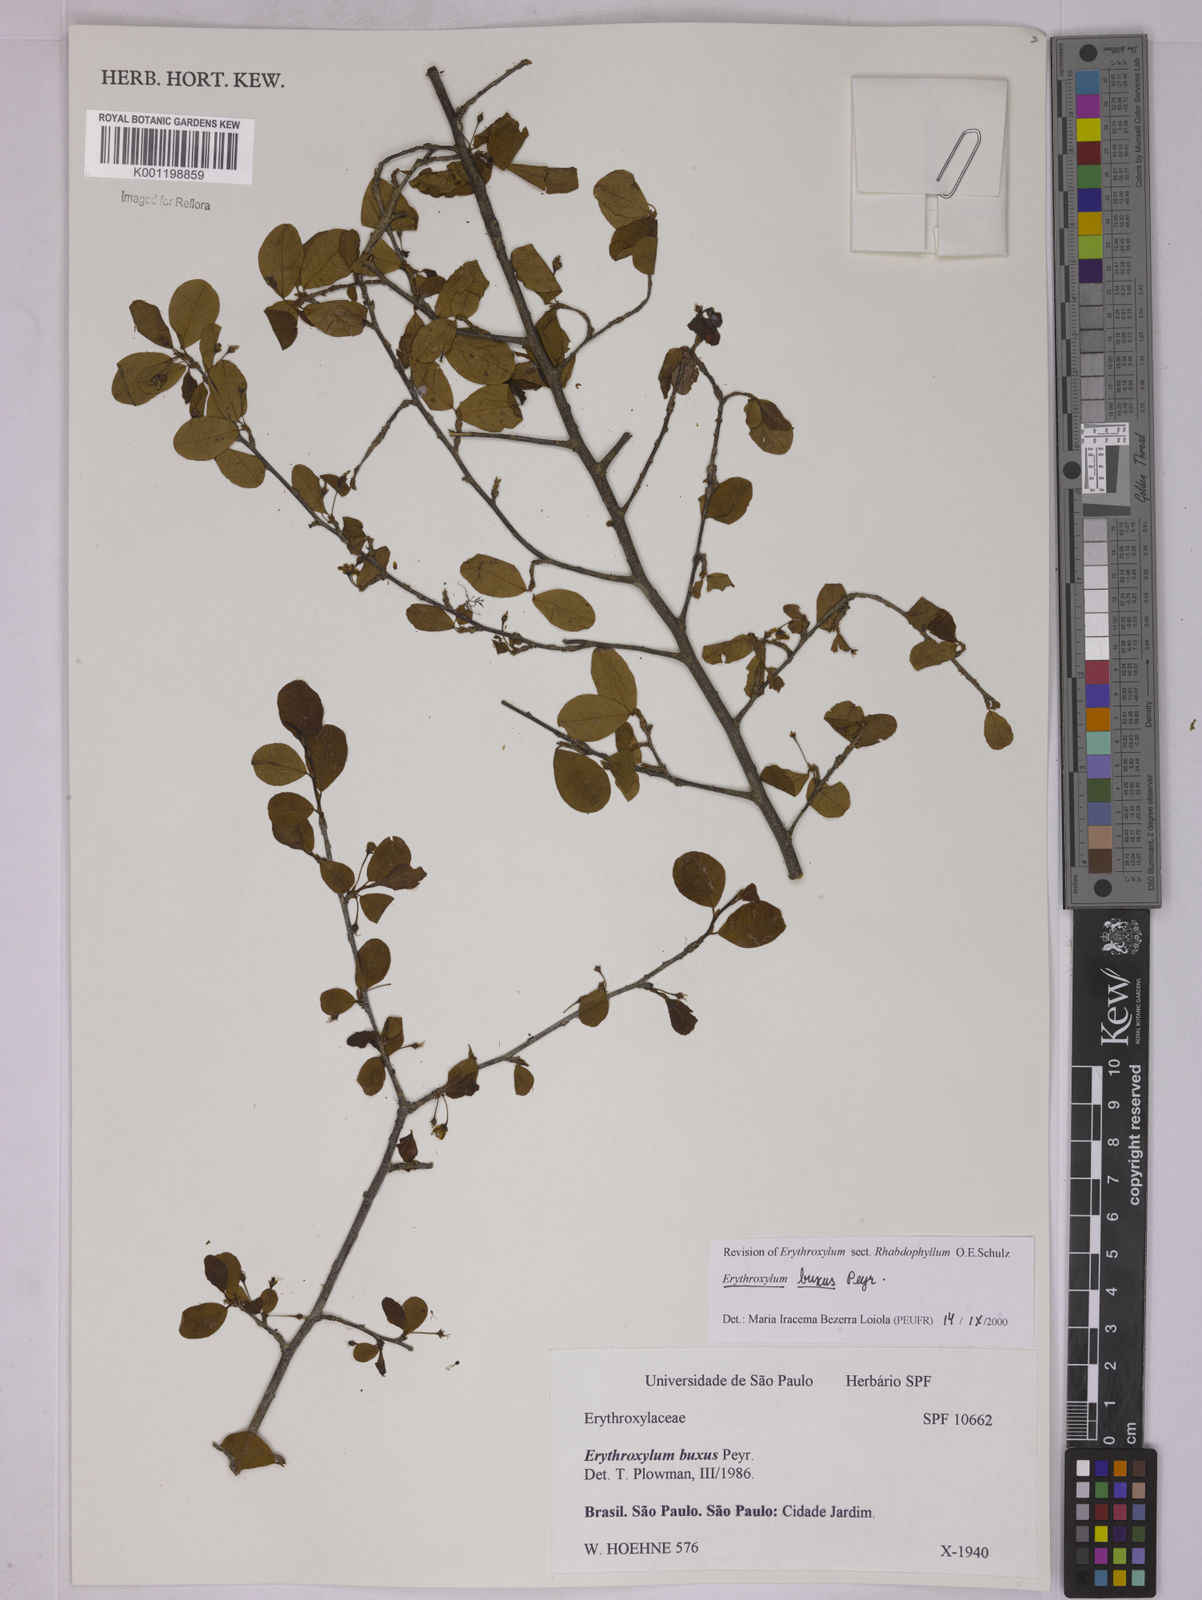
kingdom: Plantae
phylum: Tracheophyta
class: Magnoliopsida
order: Malpighiales
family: Erythroxylaceae
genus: Erythroxylum
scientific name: Erythroxylum buxus
